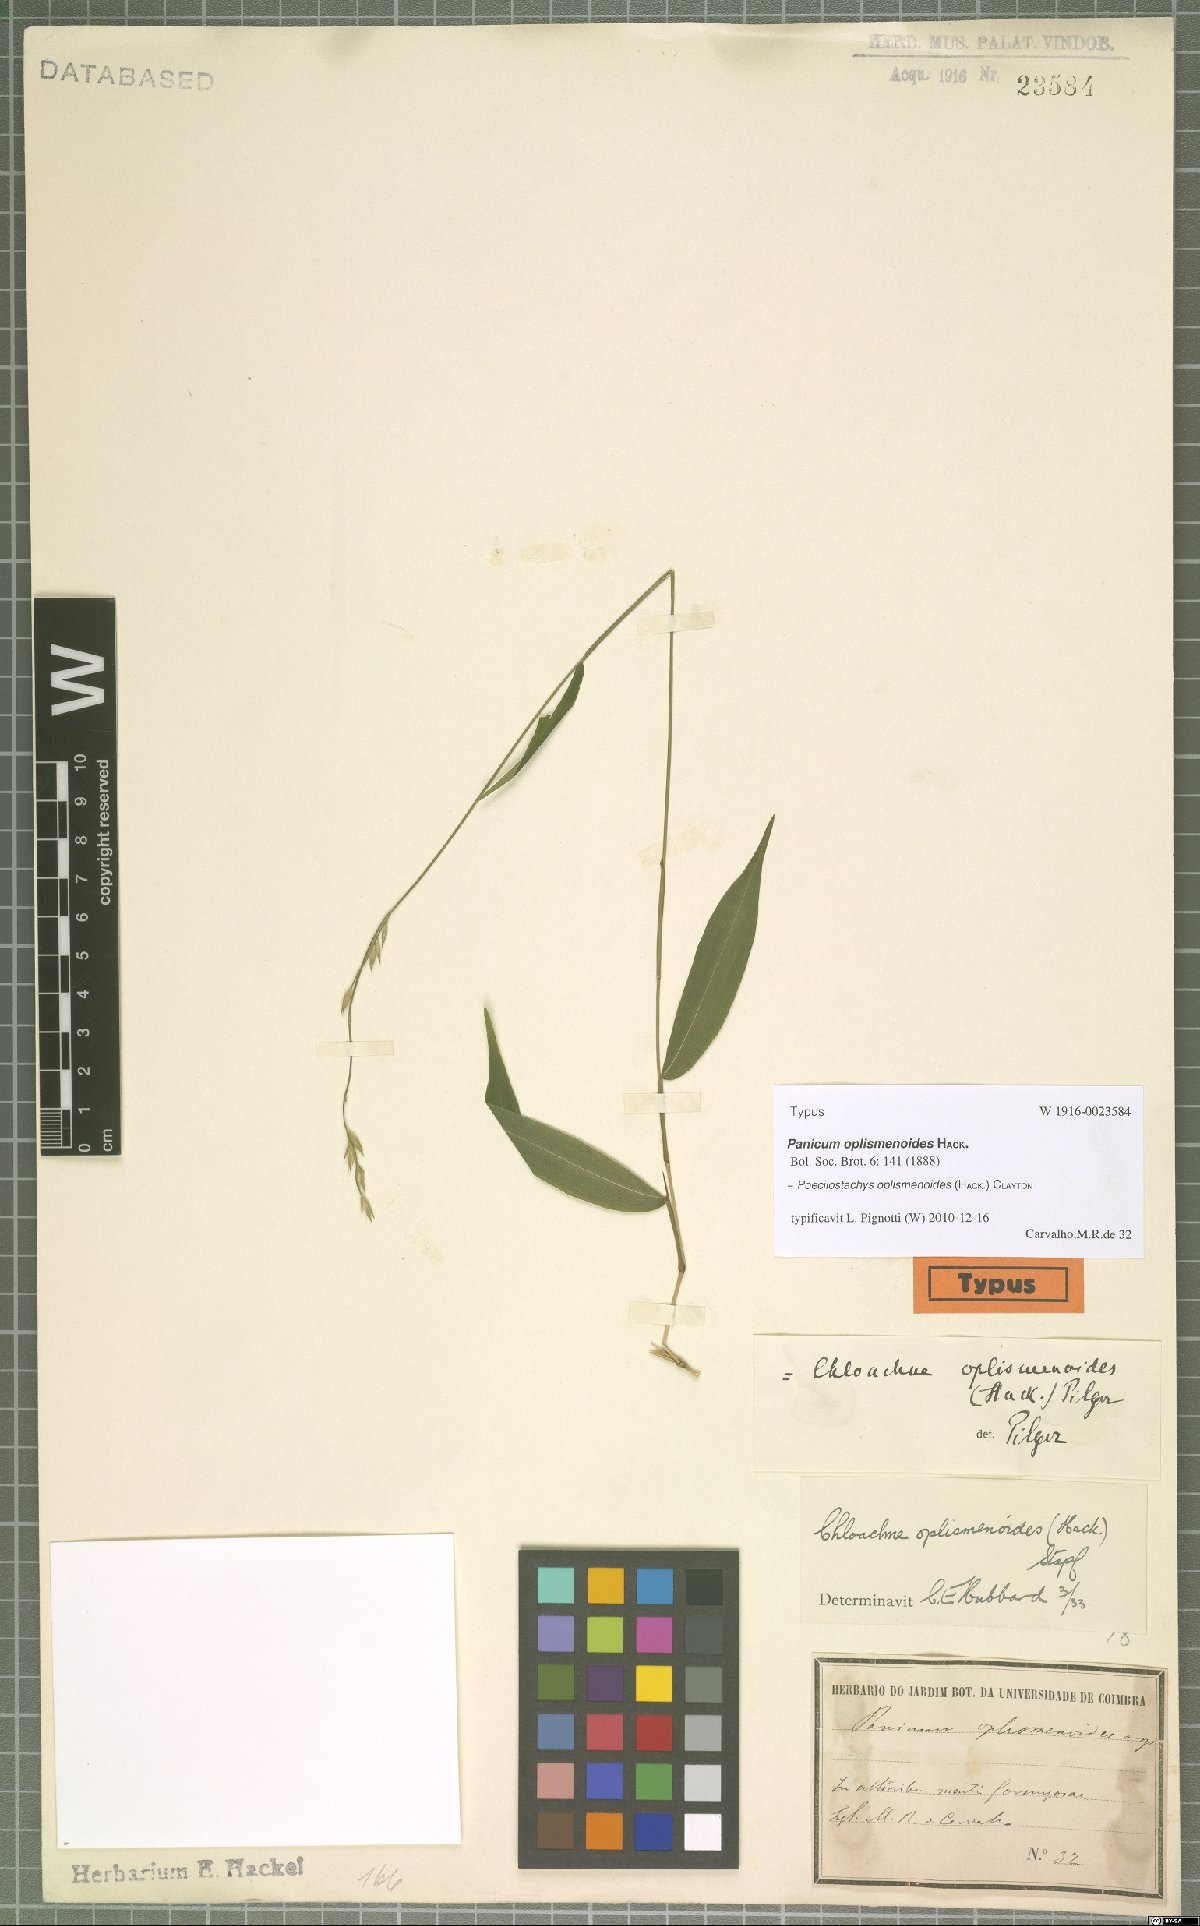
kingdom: Plantae
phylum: Tracheophyta
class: Liliopsida
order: Poales
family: Poaceae
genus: Poecilostachys
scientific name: Poecilostachys oplismenoides
